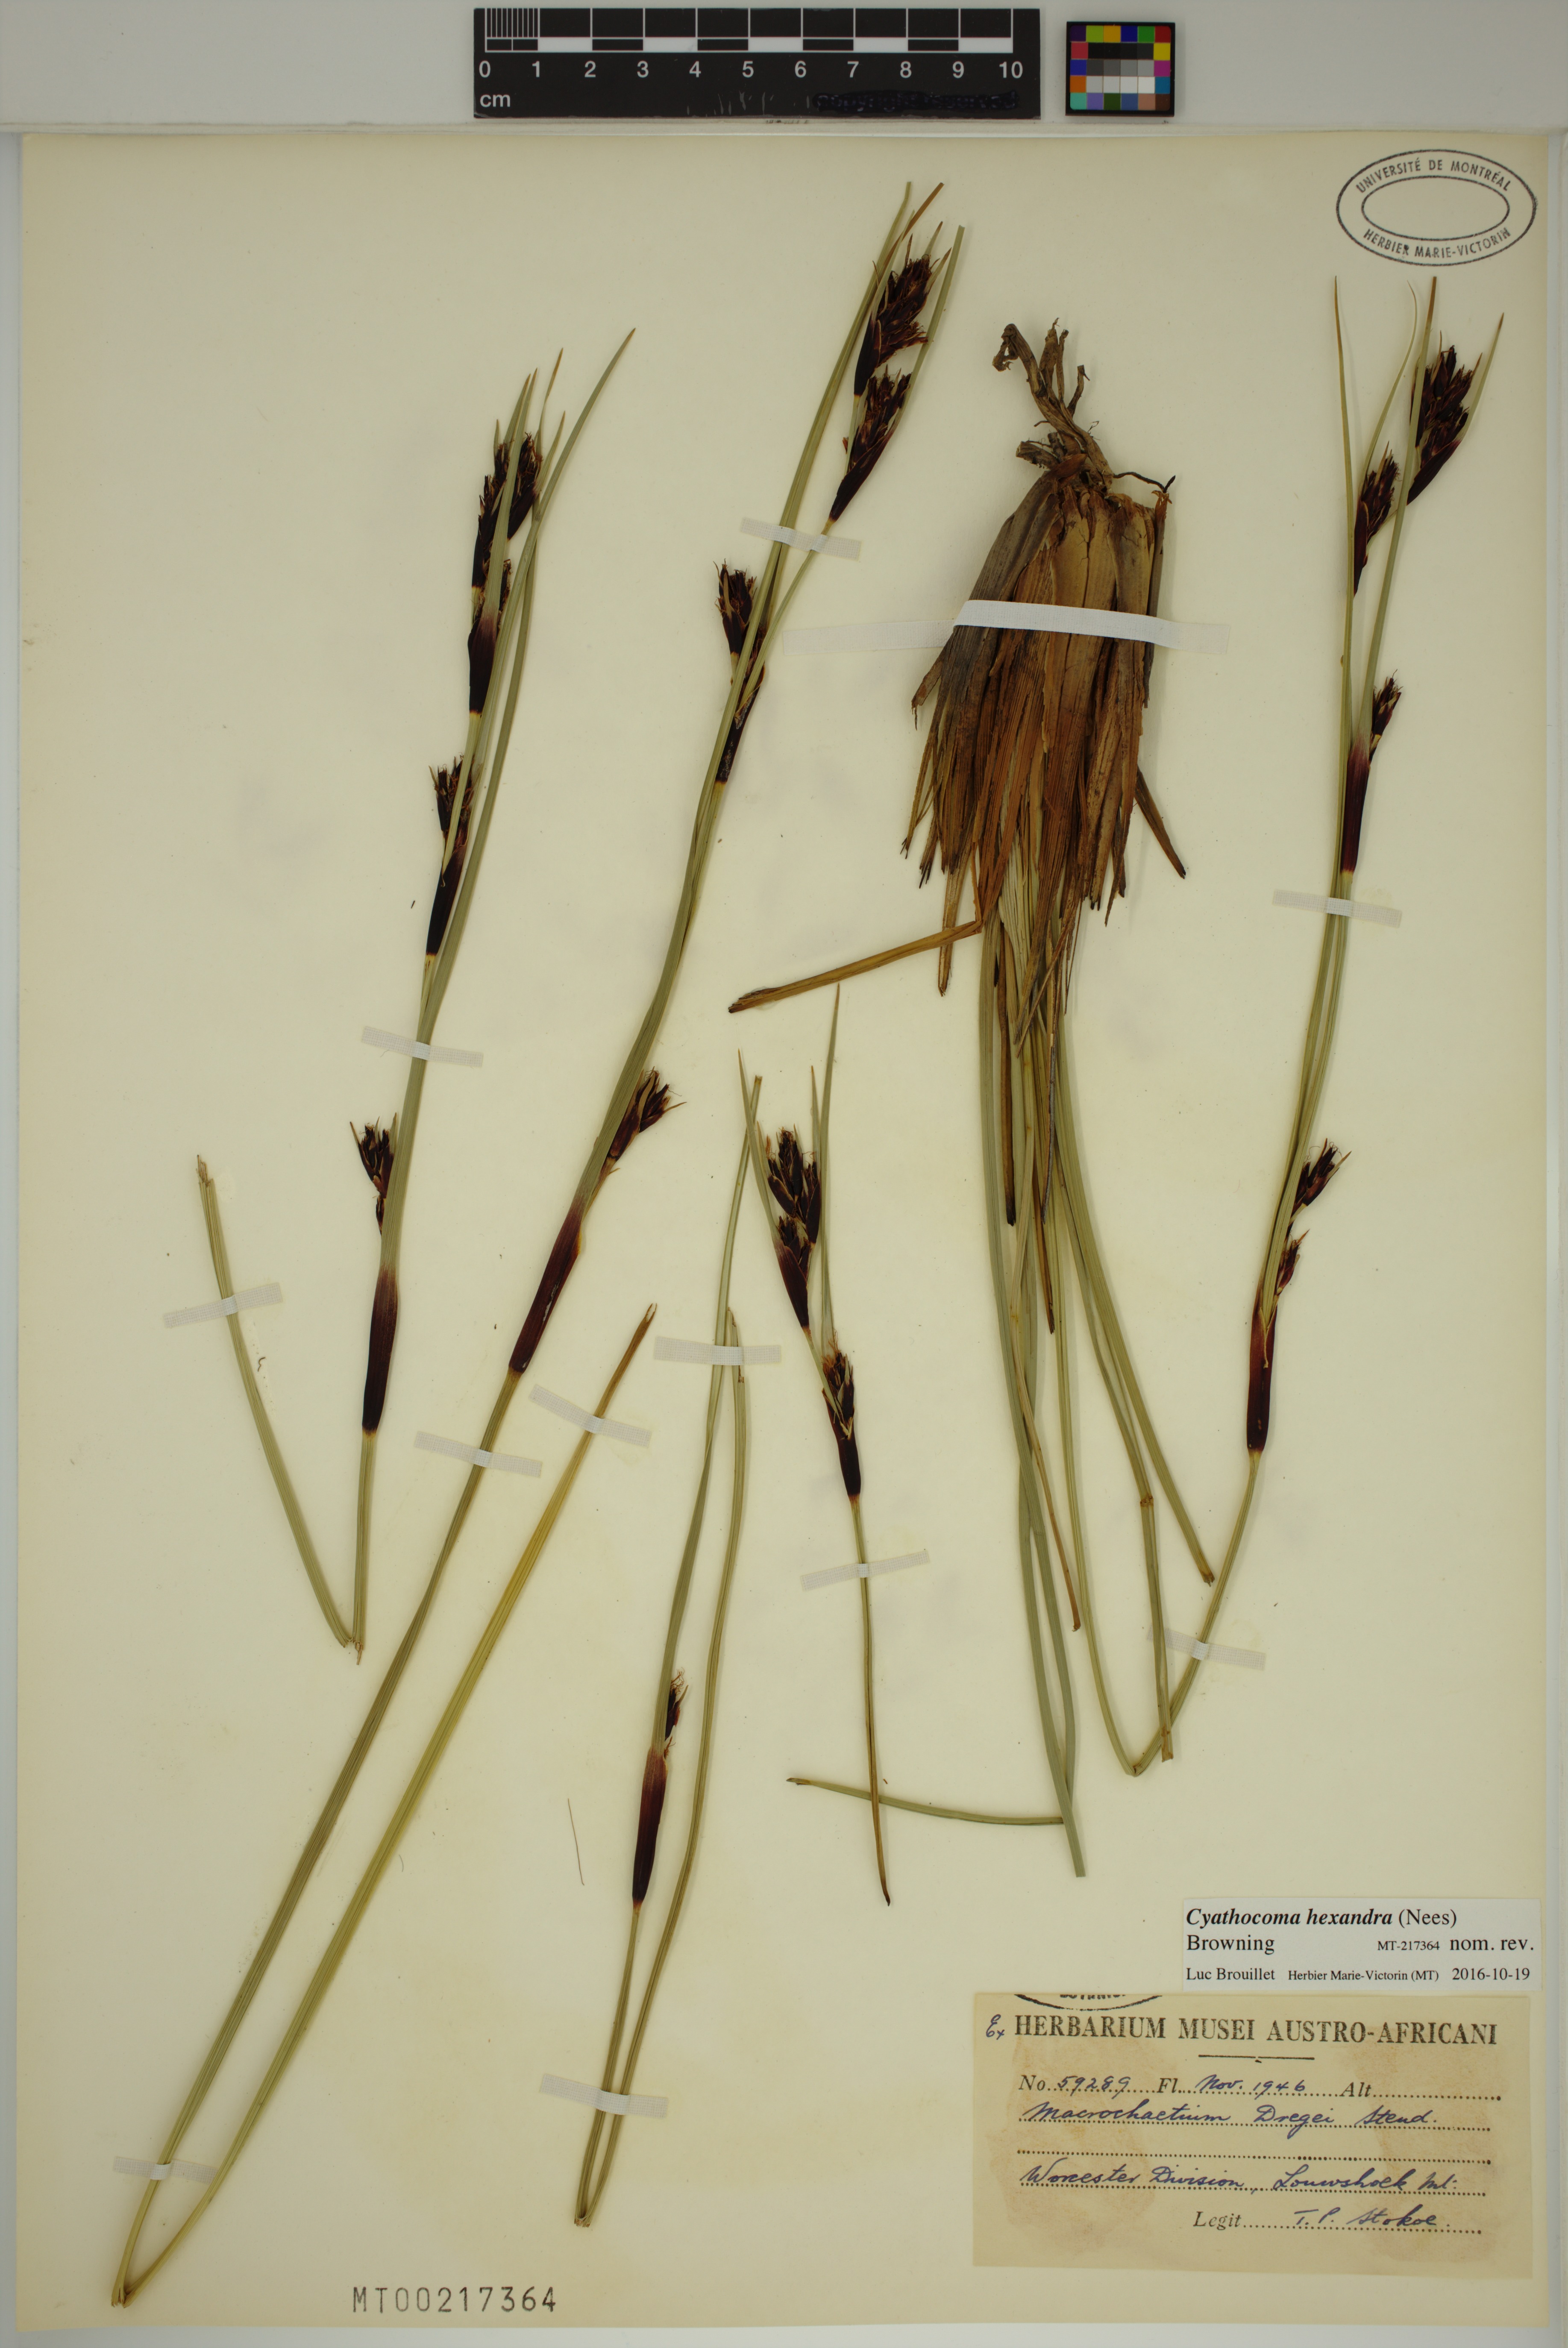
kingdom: Plantae
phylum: Tracheophyta
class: Liliopsida
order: Poales
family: Cyperaceae
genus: Cyathocoma
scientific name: Cyathocoma hexandra
